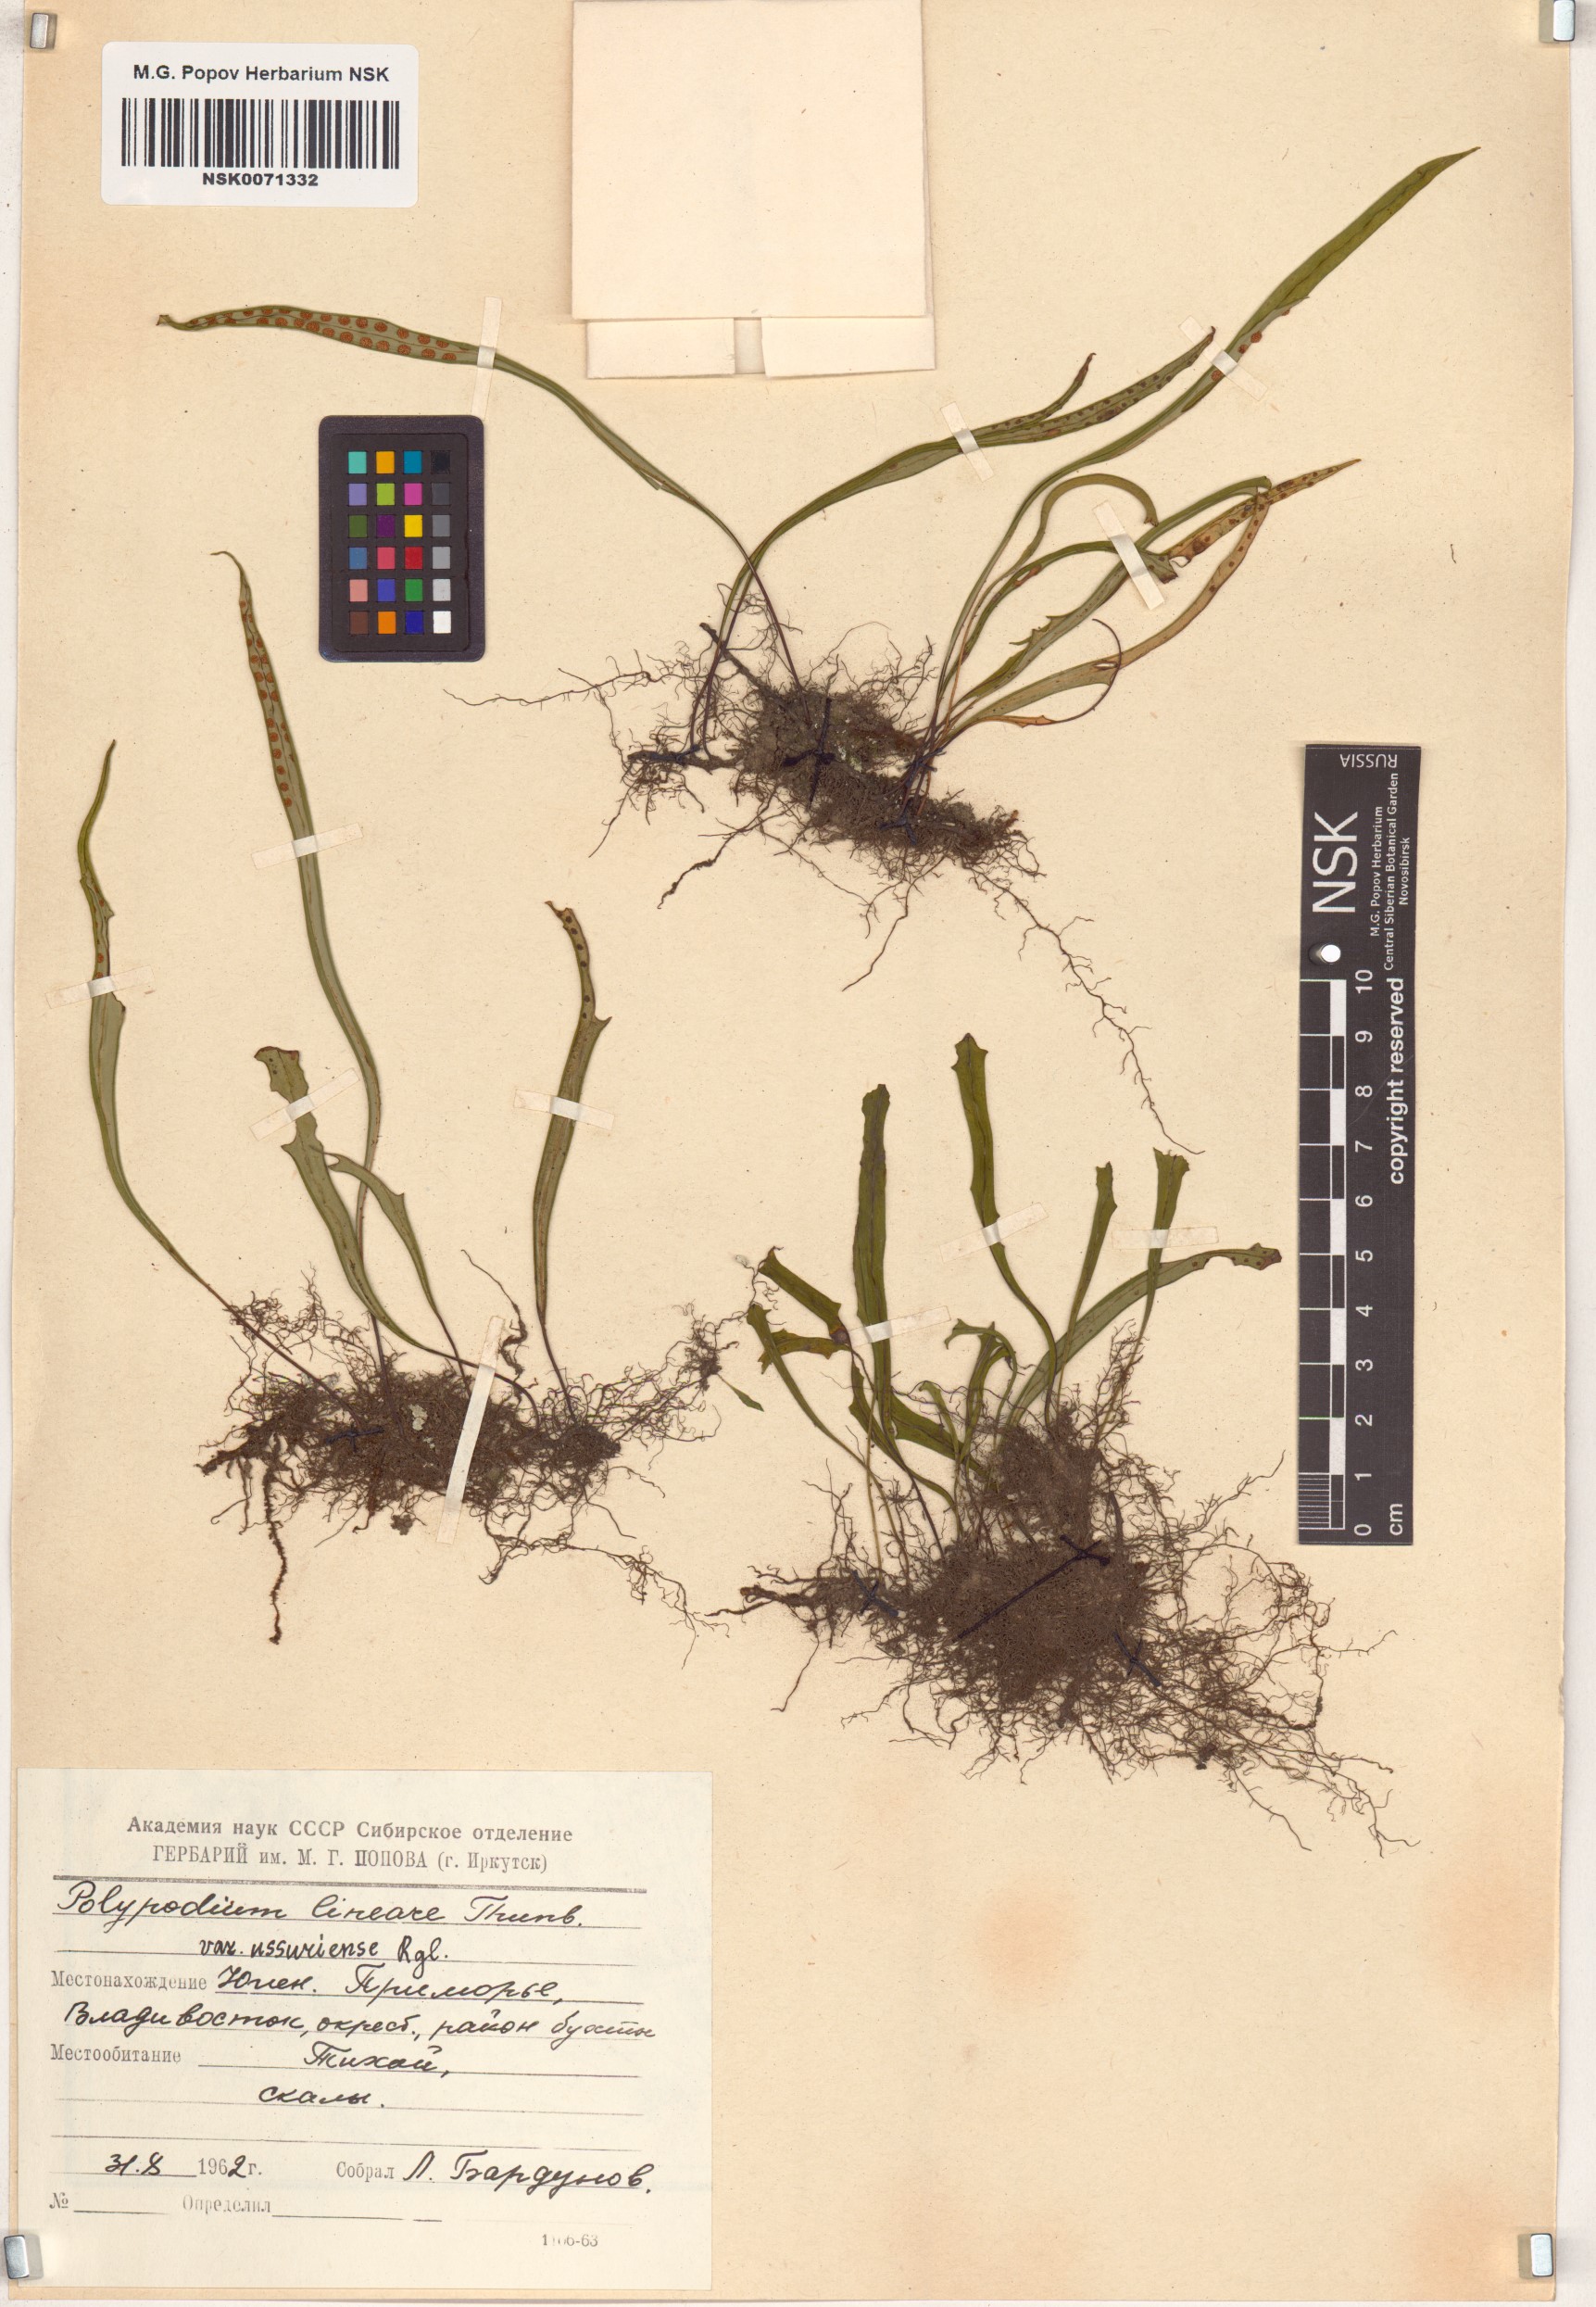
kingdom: Plantae
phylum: Tracheophyta
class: Polypodiopsida
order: Polypodiales
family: Polypodiaceae
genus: Lepisorus
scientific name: Lepisorus ussuriensis
